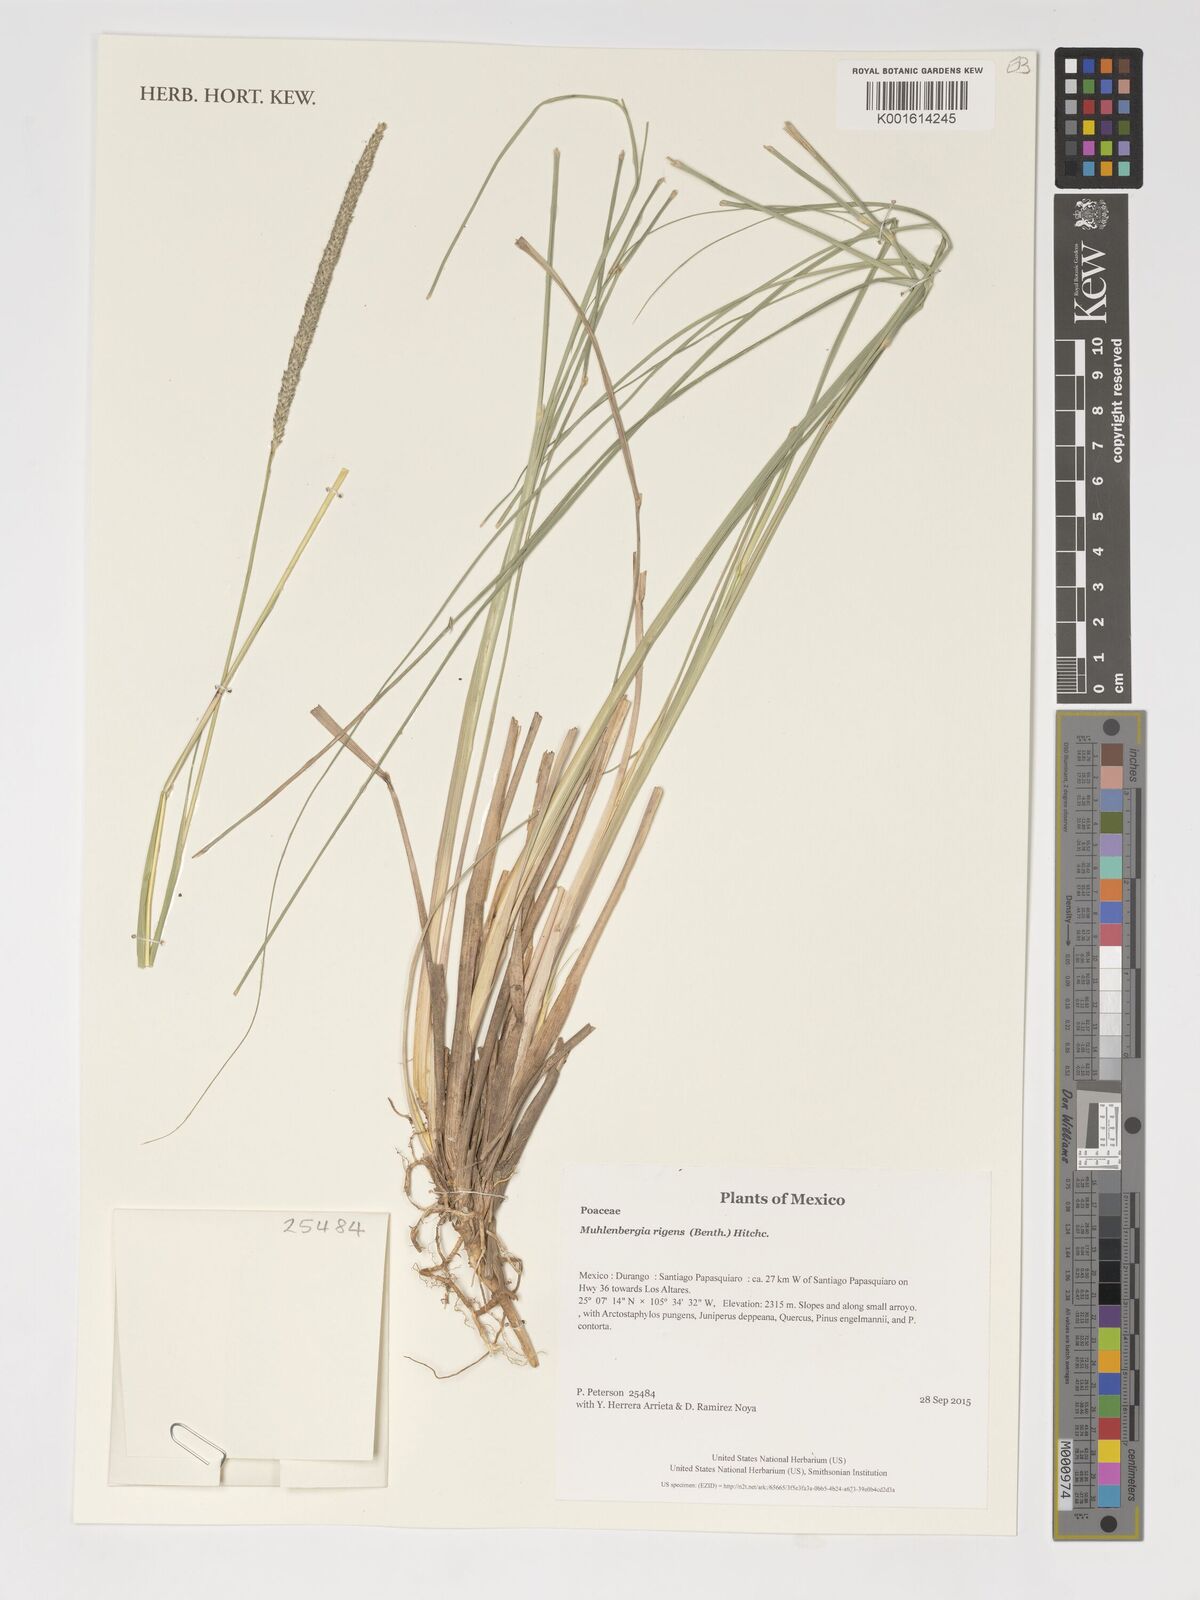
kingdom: Plantae
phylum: Tracheophyta
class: Liliopsida
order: Poales
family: Poaceae
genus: Muhlenbergia
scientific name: Muhlenbergia rigens
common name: Deer grass
